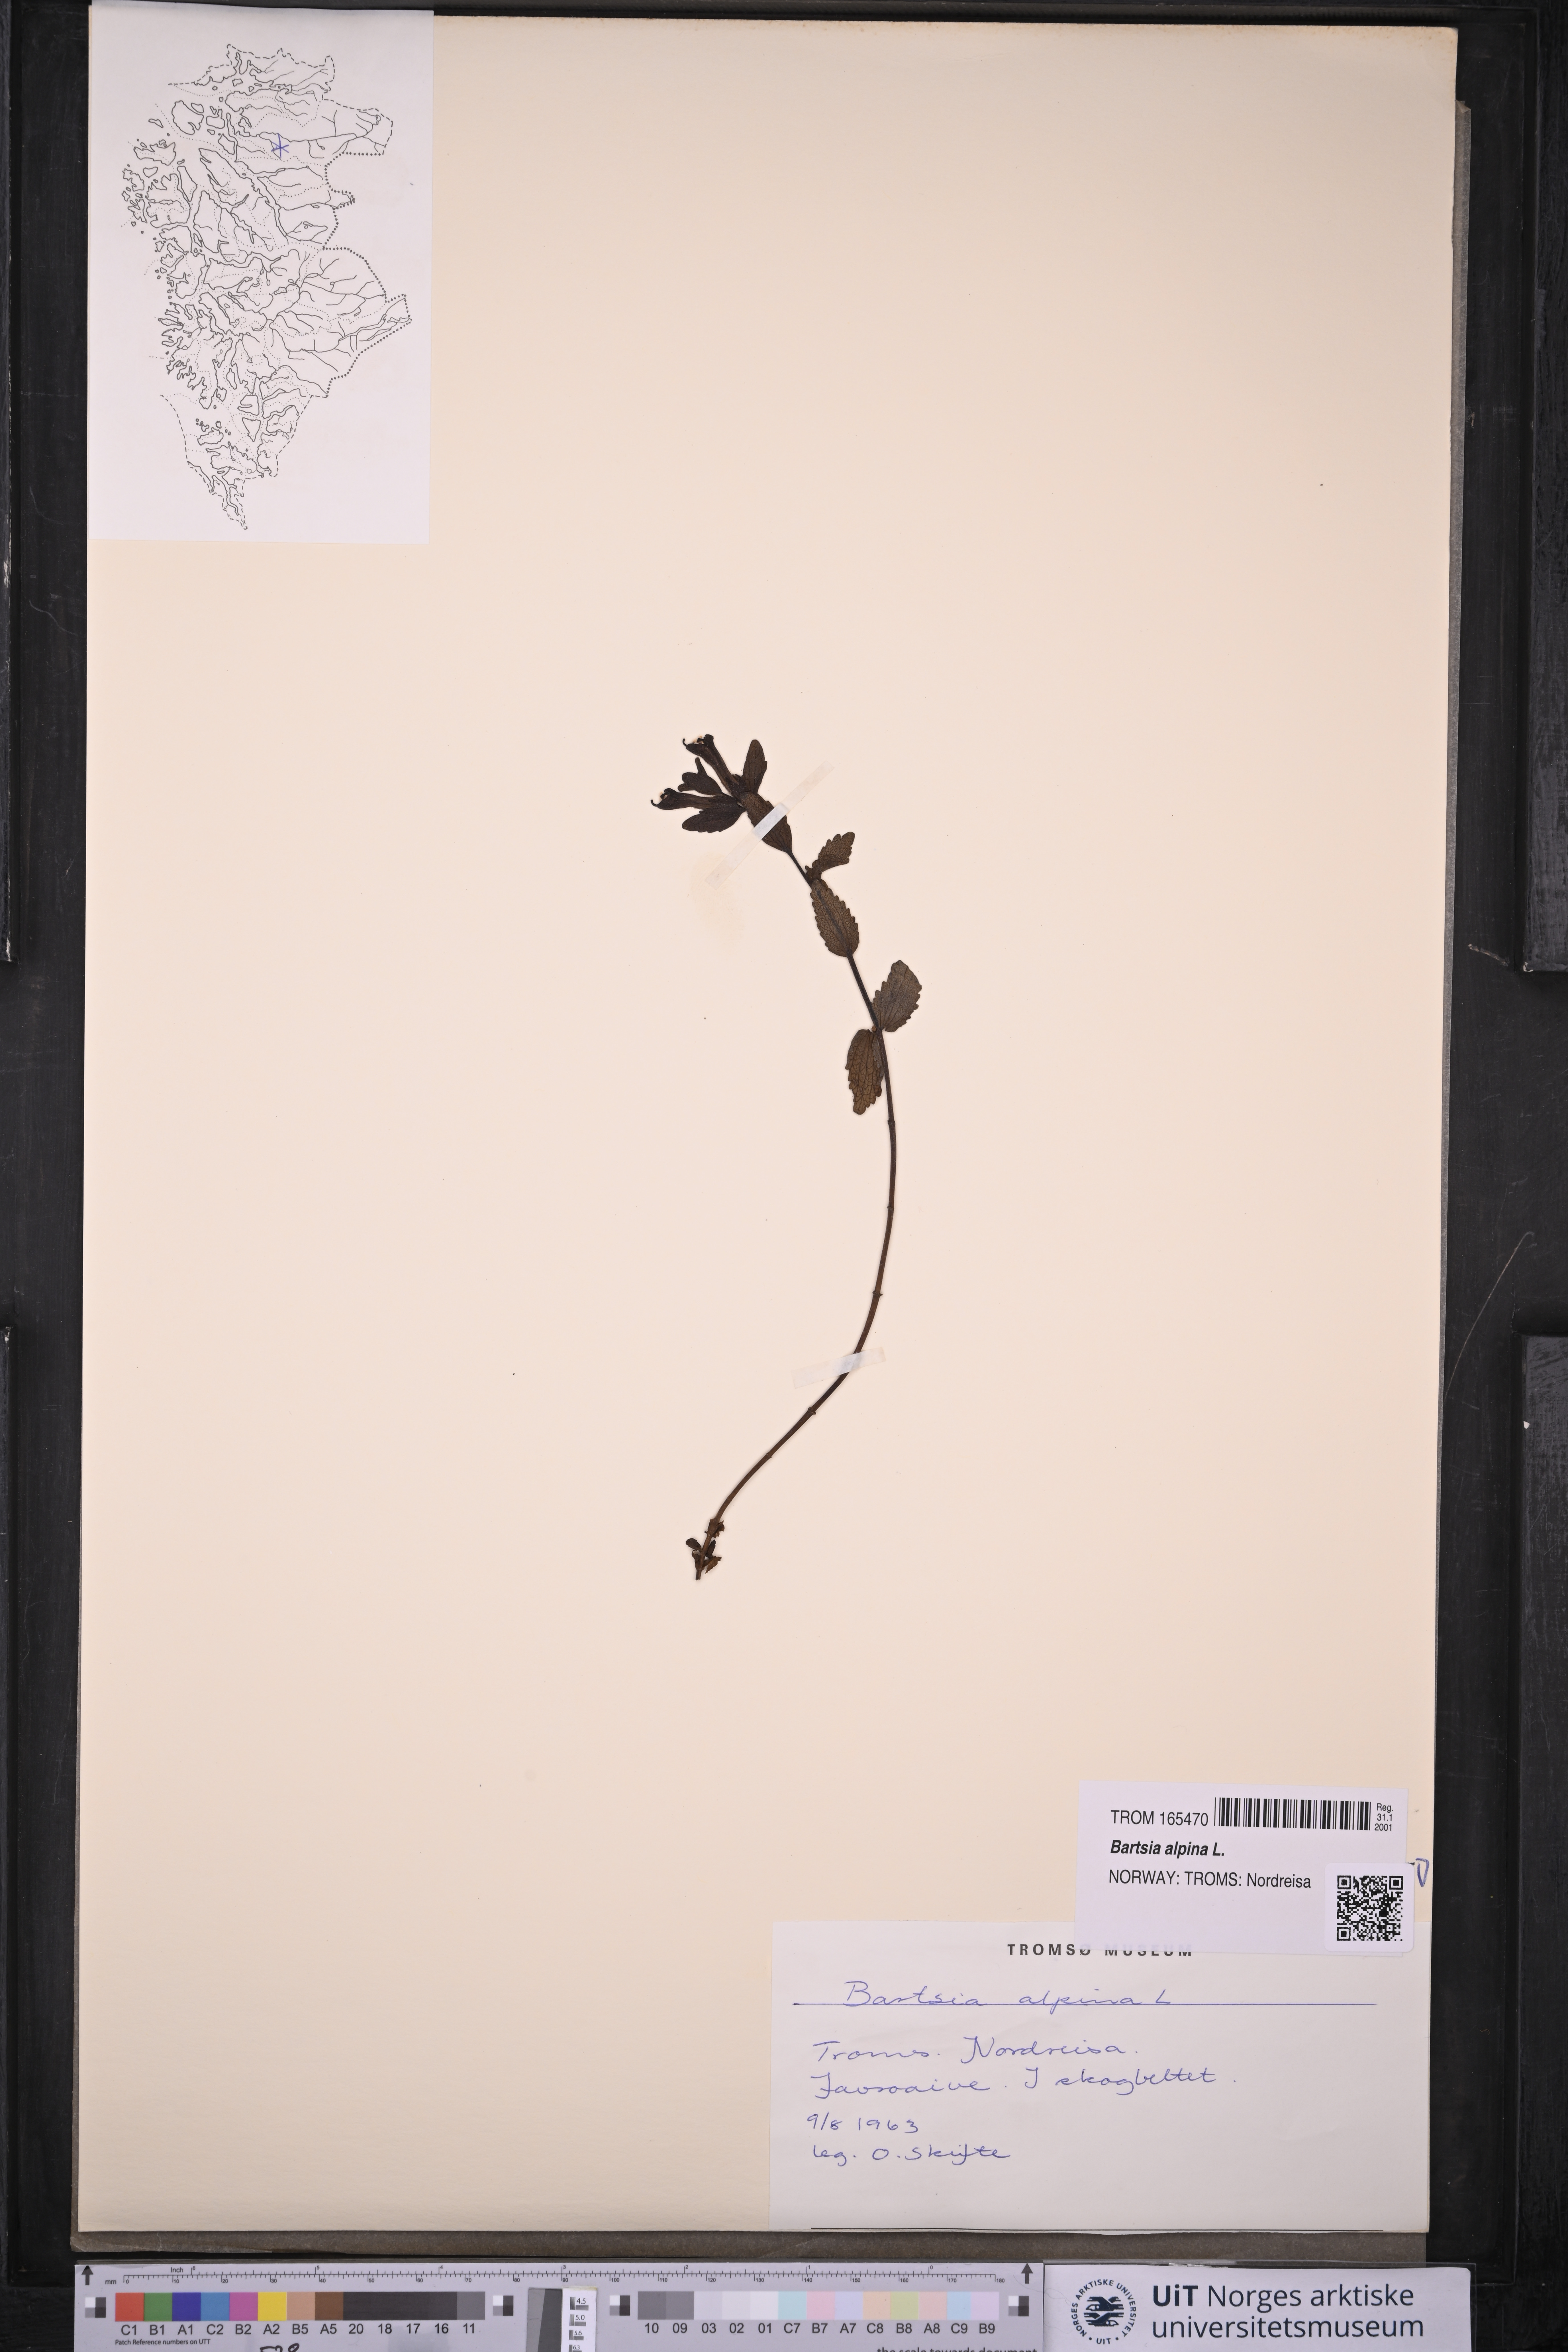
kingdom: Plantae
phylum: Tracheophyta
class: Magnoliopsida
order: Lamiales
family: Orobanchaceae
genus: Bartsia
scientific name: Bartsia alpina
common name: Alpine bartsia
